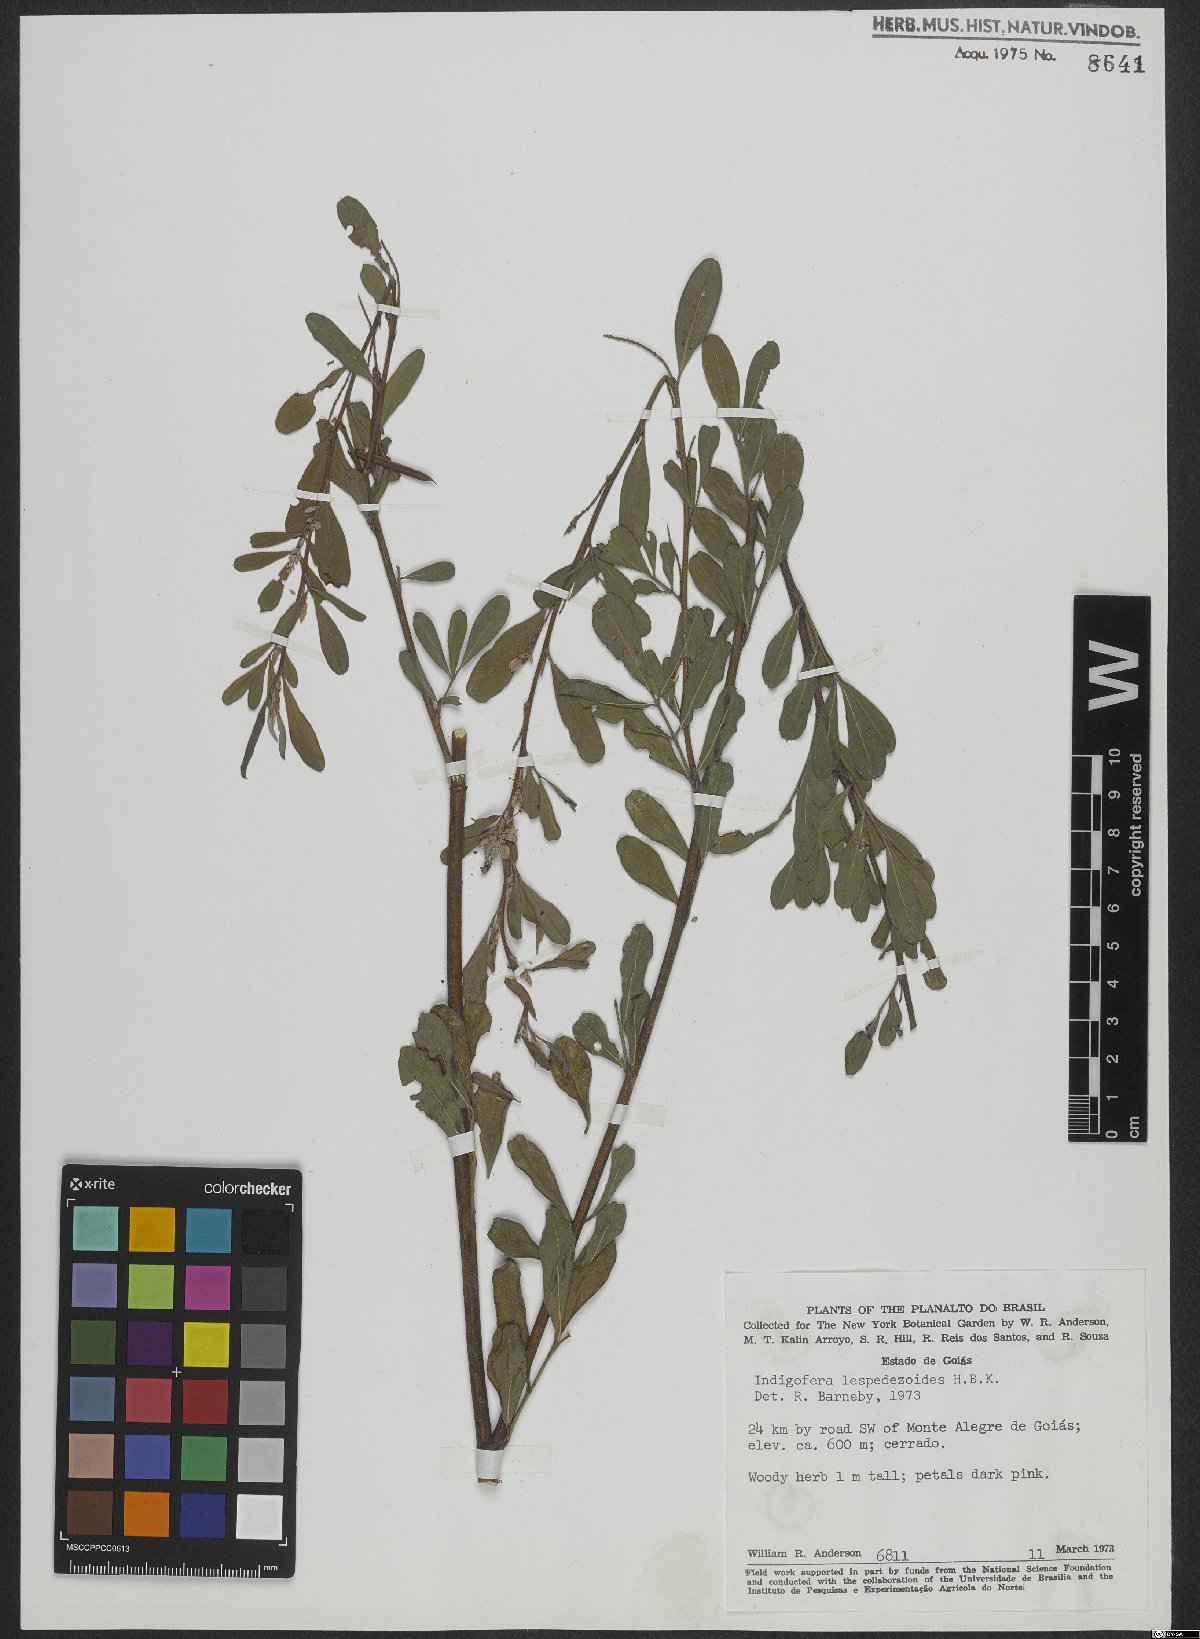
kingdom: Plantae
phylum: Tracheophyta
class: Magnoliopsida
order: Fabales
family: Fabaceae
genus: Indigofera
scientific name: Indigofera cassioides
